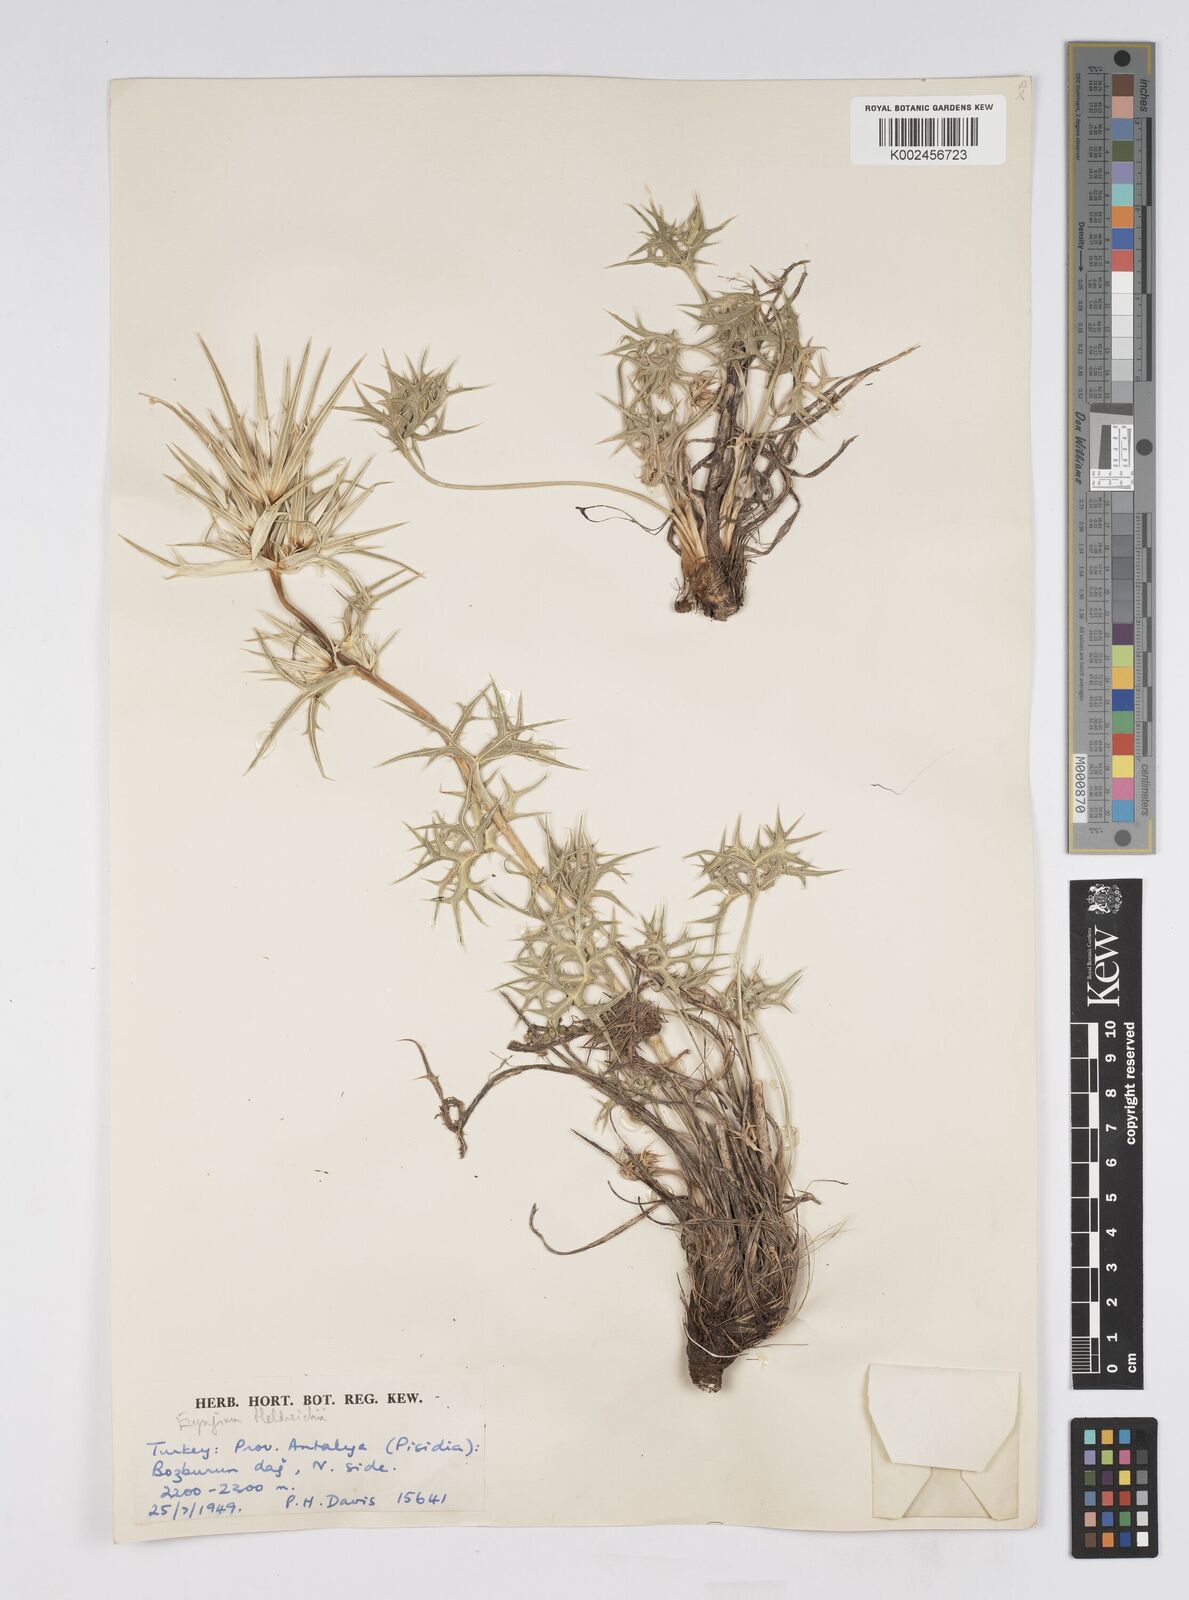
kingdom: Plantae
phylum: Tracheophyta
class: Magnoliopsida
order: Apiales
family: Apiaceae
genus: Eryngium
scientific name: Eryngium heldreichii
